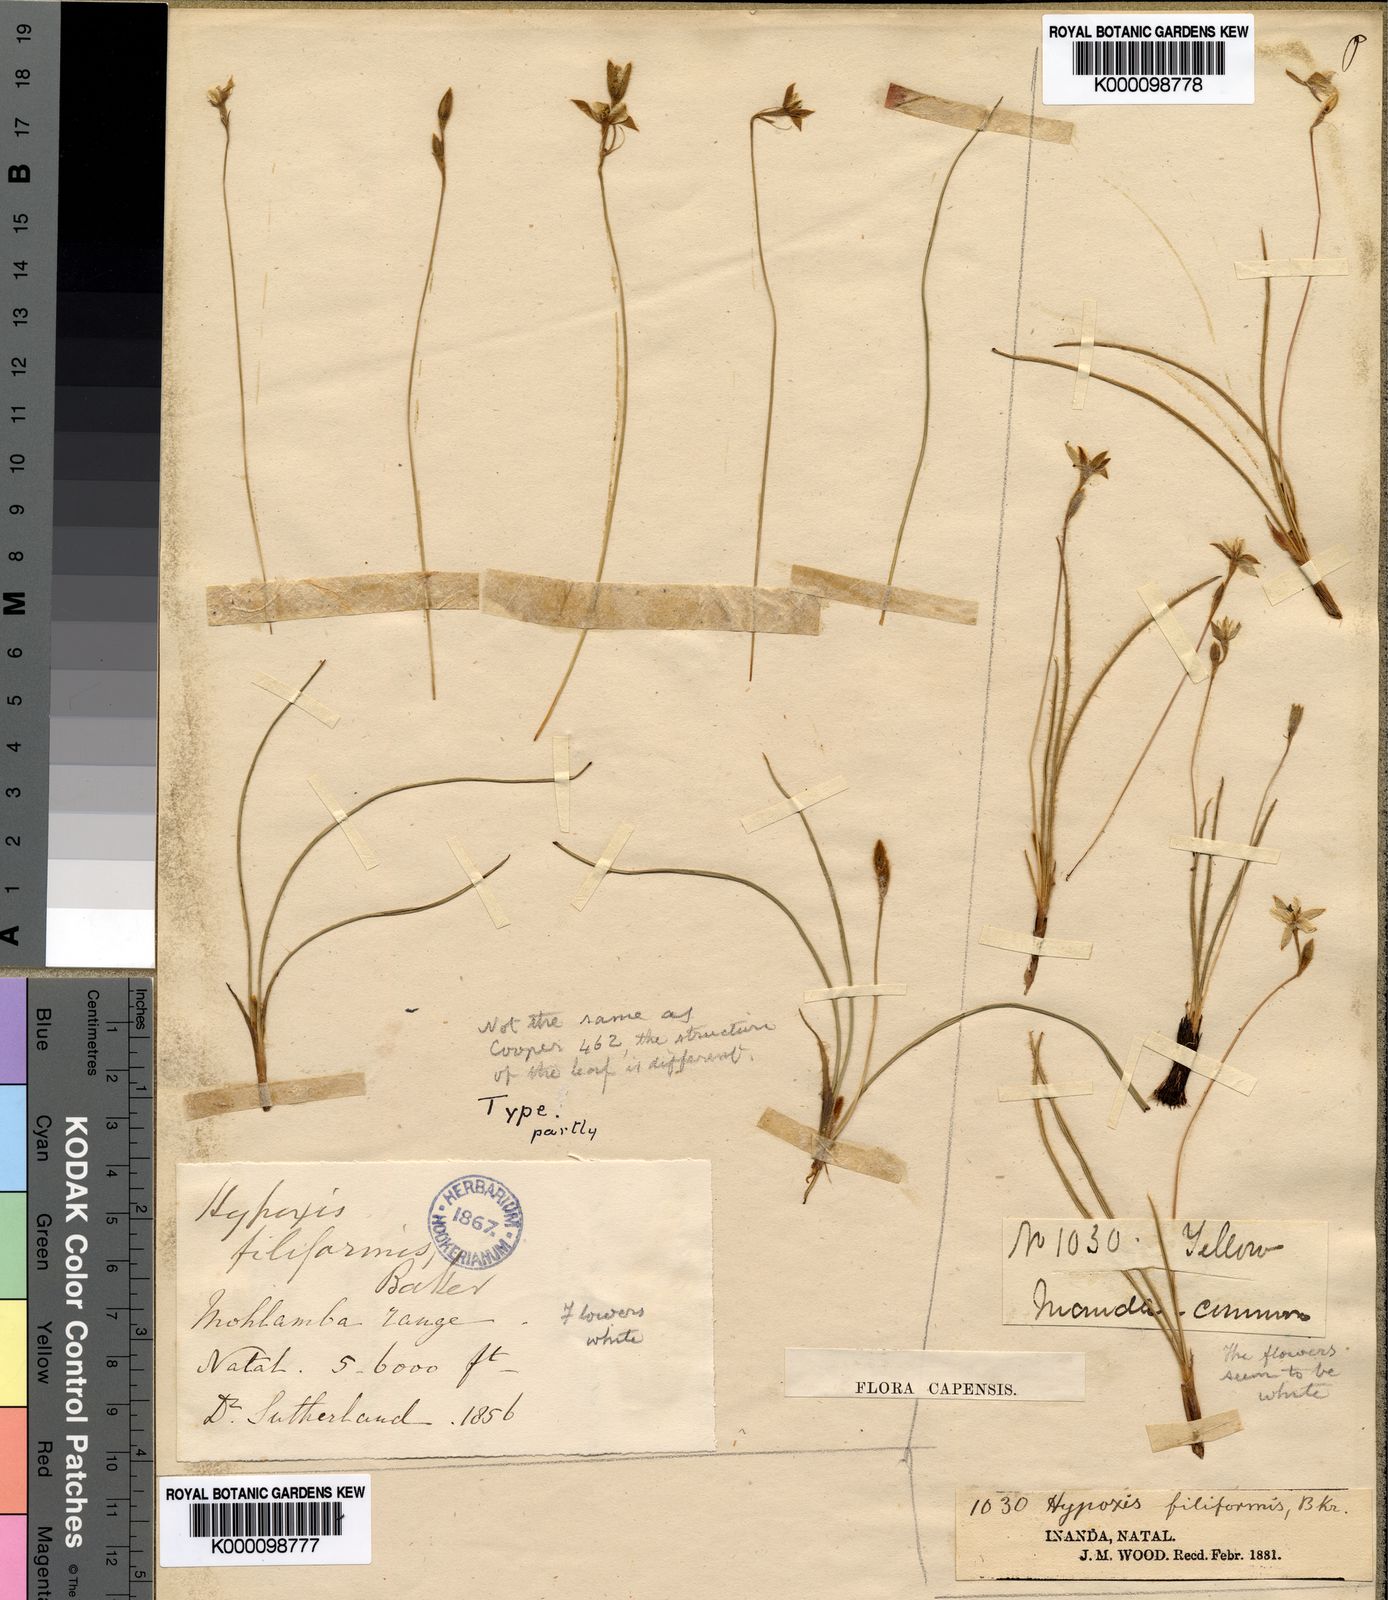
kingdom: Plantae
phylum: Tracheophyta
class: Liliopsida
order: Asparagales
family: Hypoxidaceae
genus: Hypoxis
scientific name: Hypoxis filiformis
